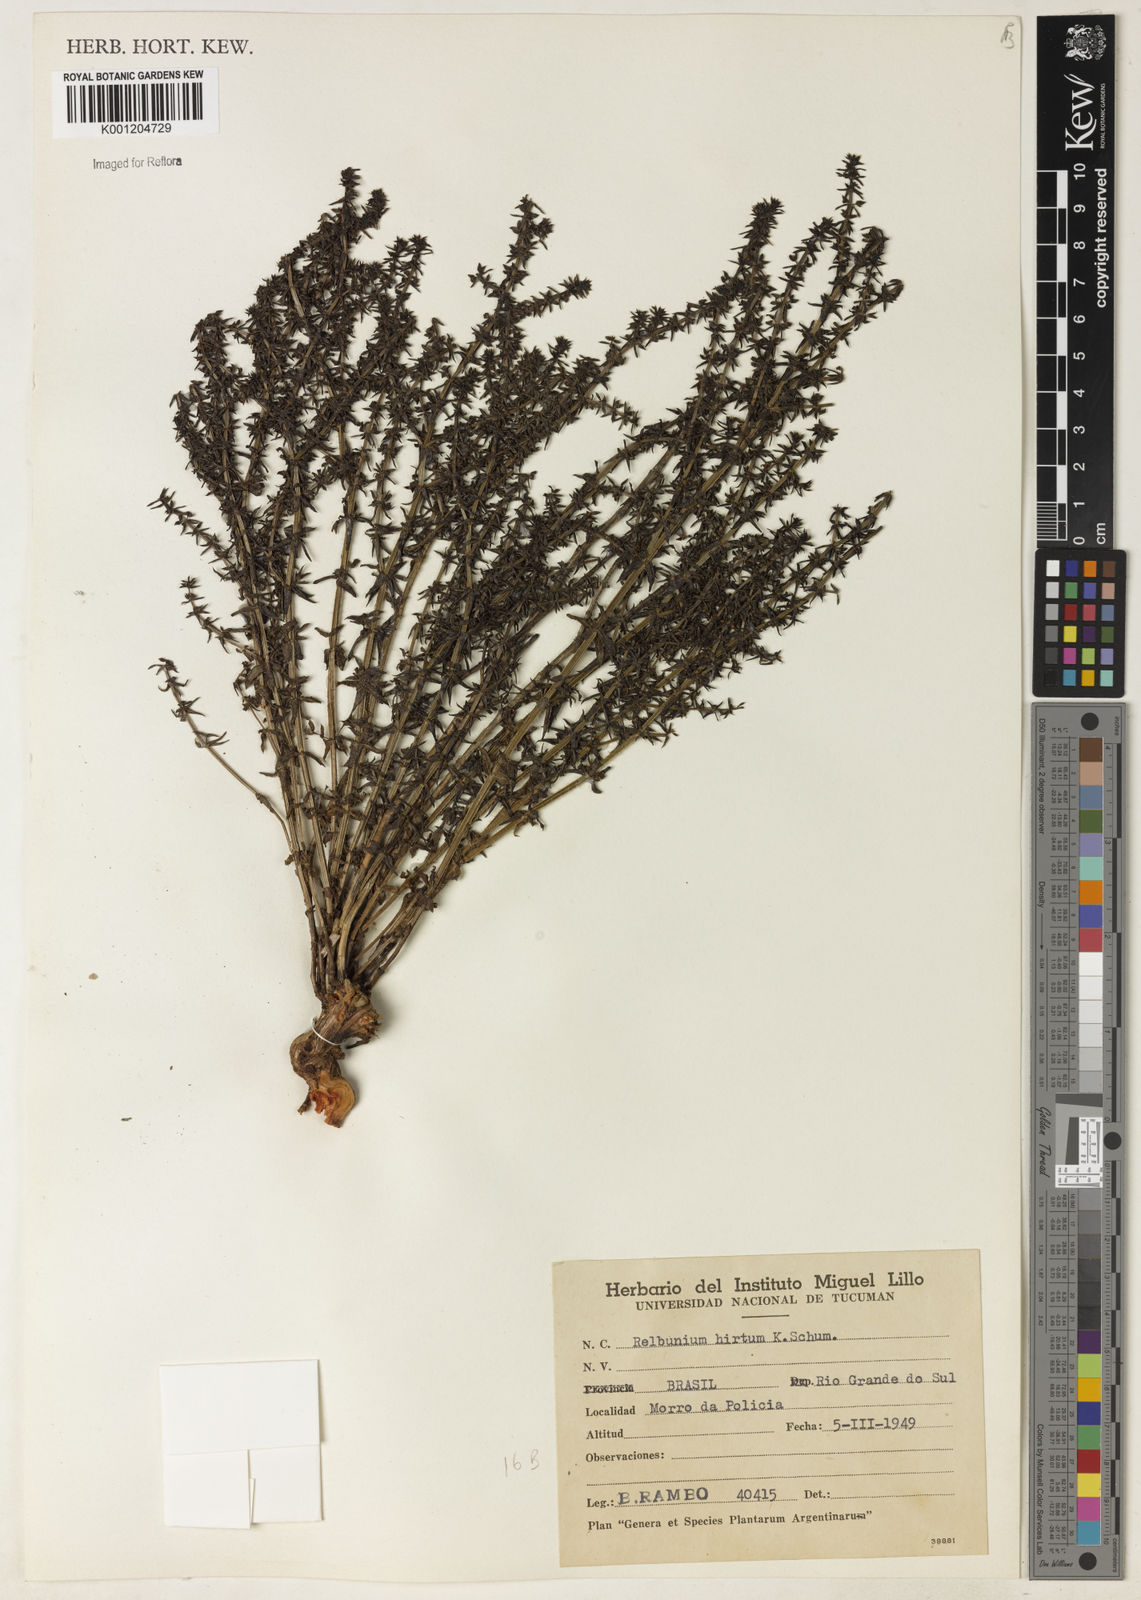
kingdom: Plantae
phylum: Tracheophyta
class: Magnoliopsida
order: Gentianales
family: Rubiaceae
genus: Galium
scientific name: Galium hirtum
